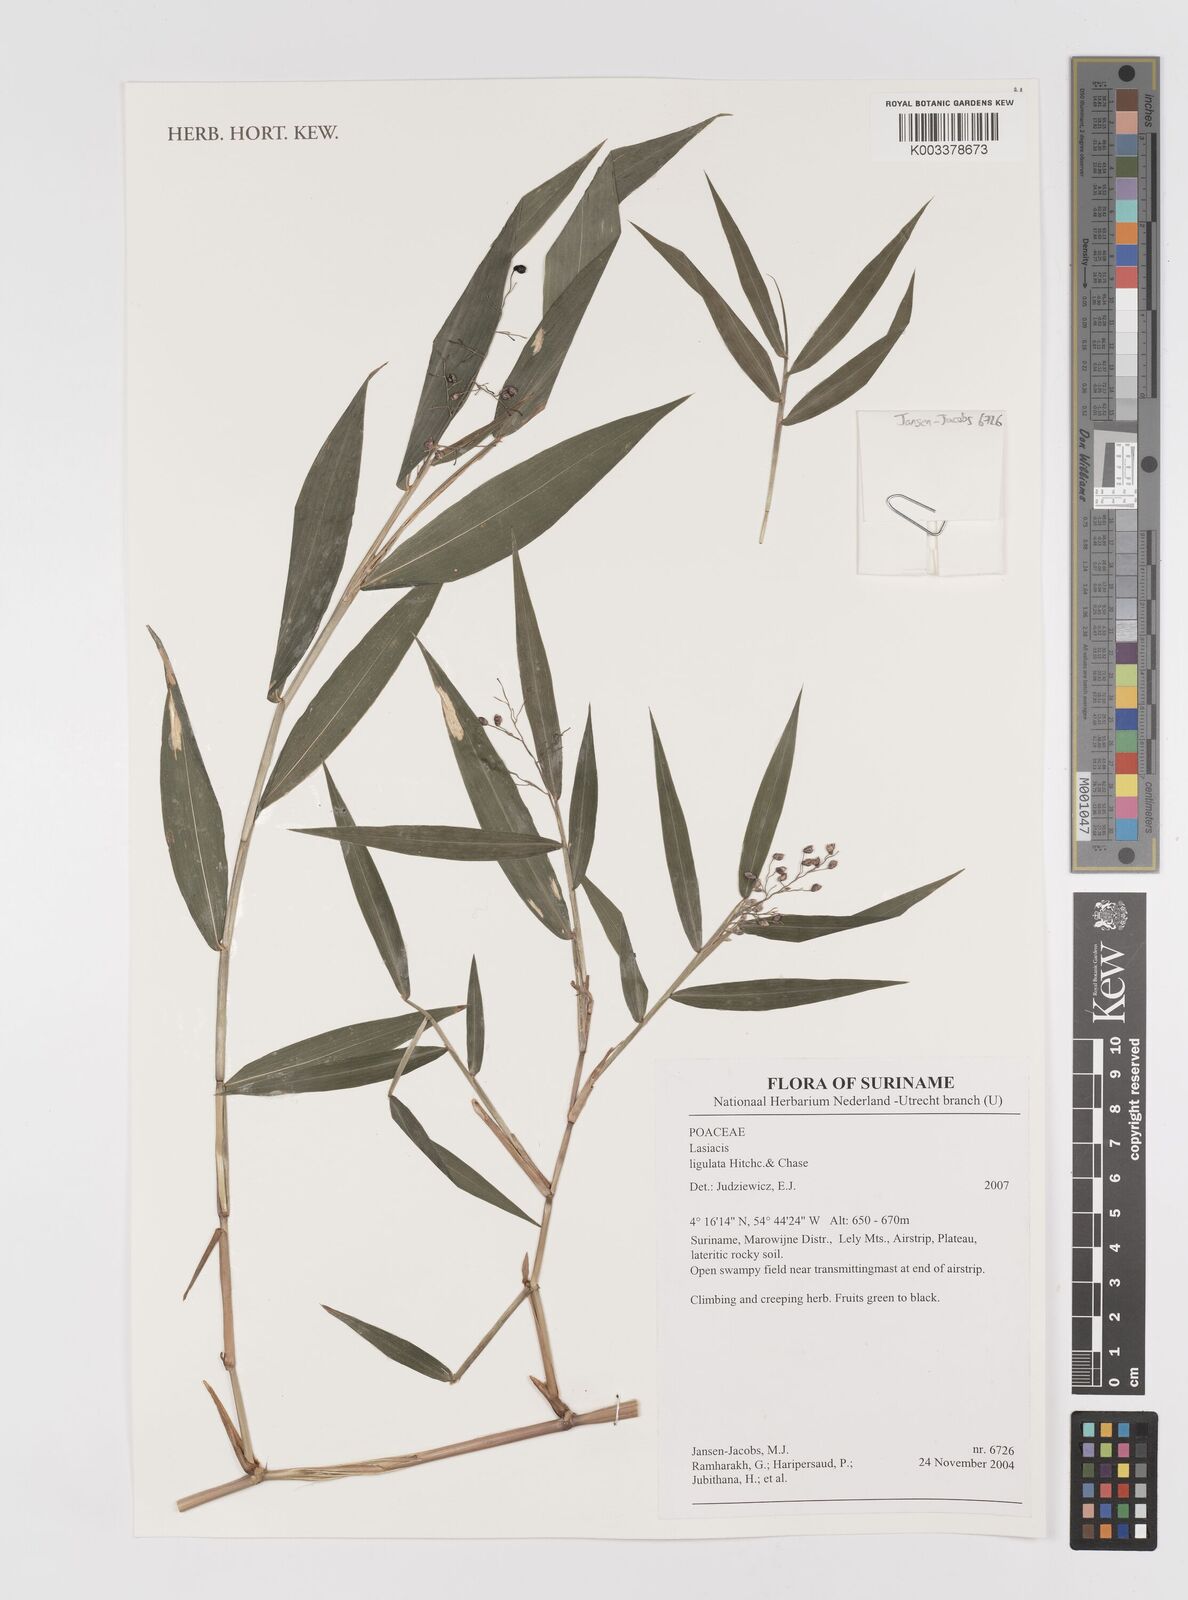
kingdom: Plantae
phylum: Tracheophyta
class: Liliopsida
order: Poales
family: Poaceae
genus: Lasiacis
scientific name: Lasiacis ligulata
